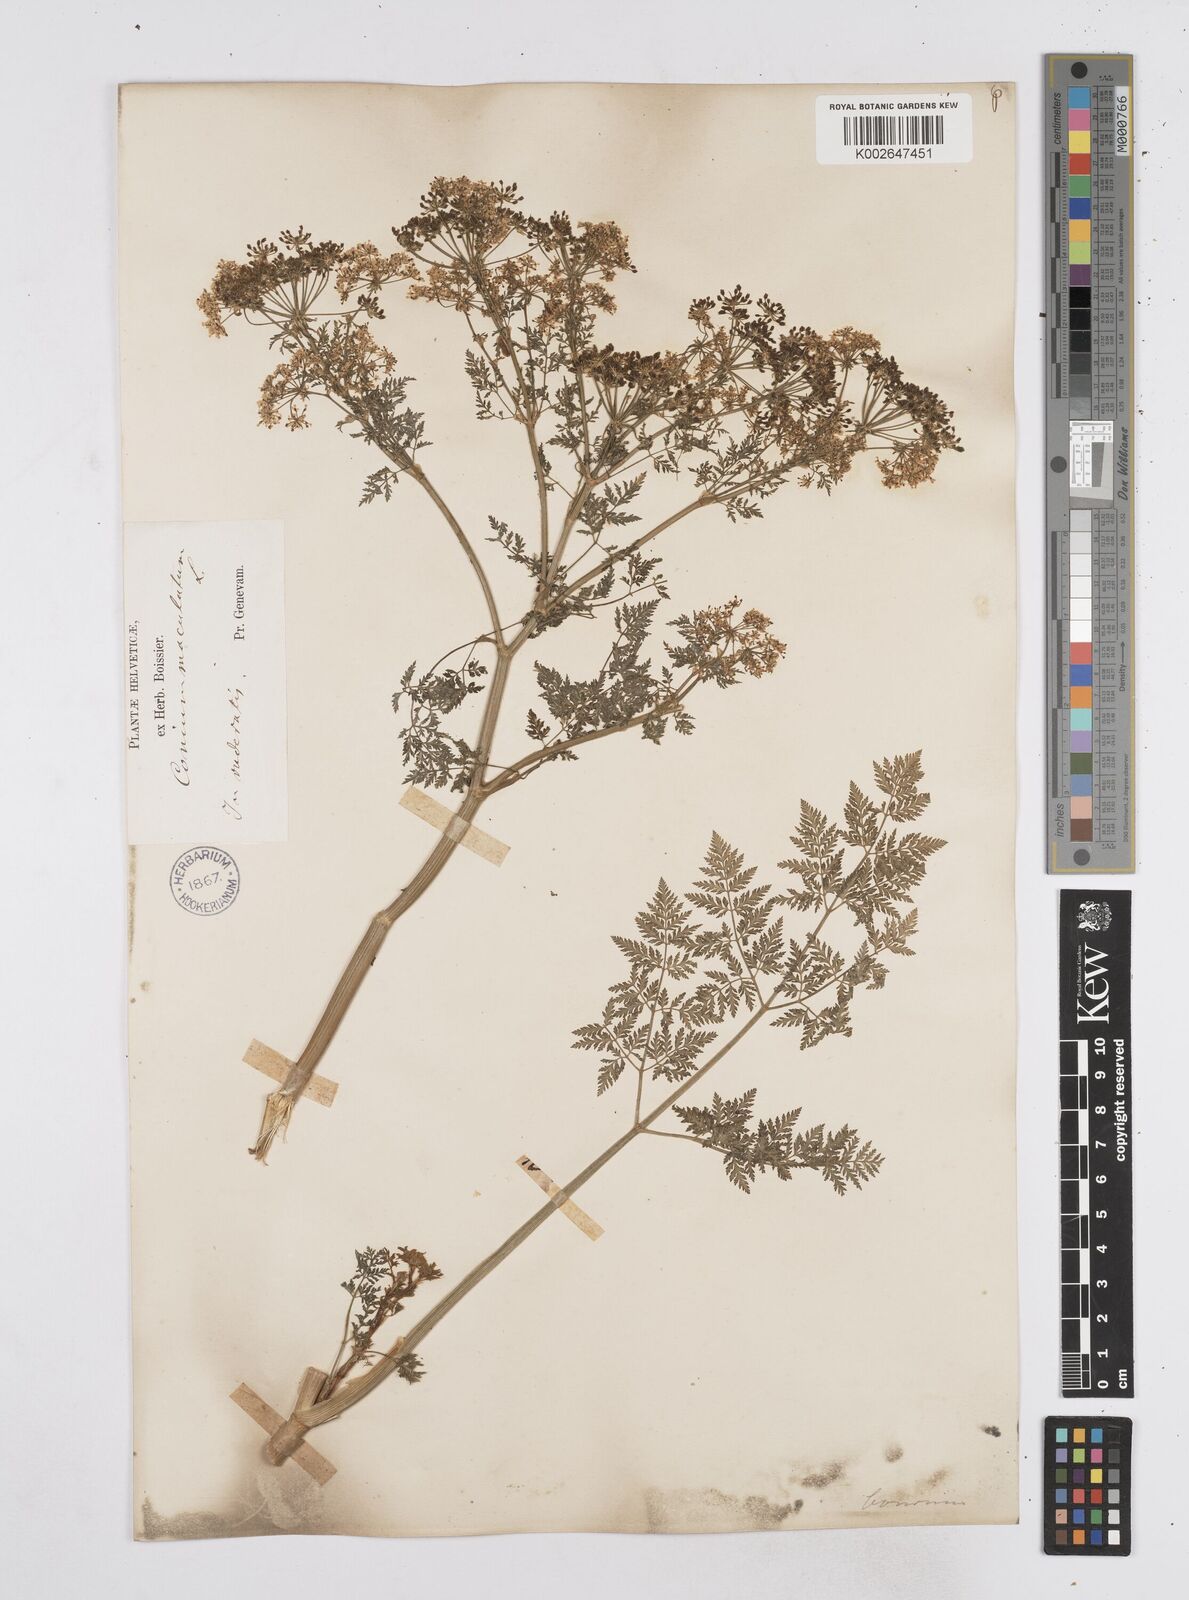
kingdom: Plantae
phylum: Tracheophyta
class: Magnoliopsida
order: Apiales
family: Apiaceae
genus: Conium
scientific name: Conium maculatum
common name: Hemlock
